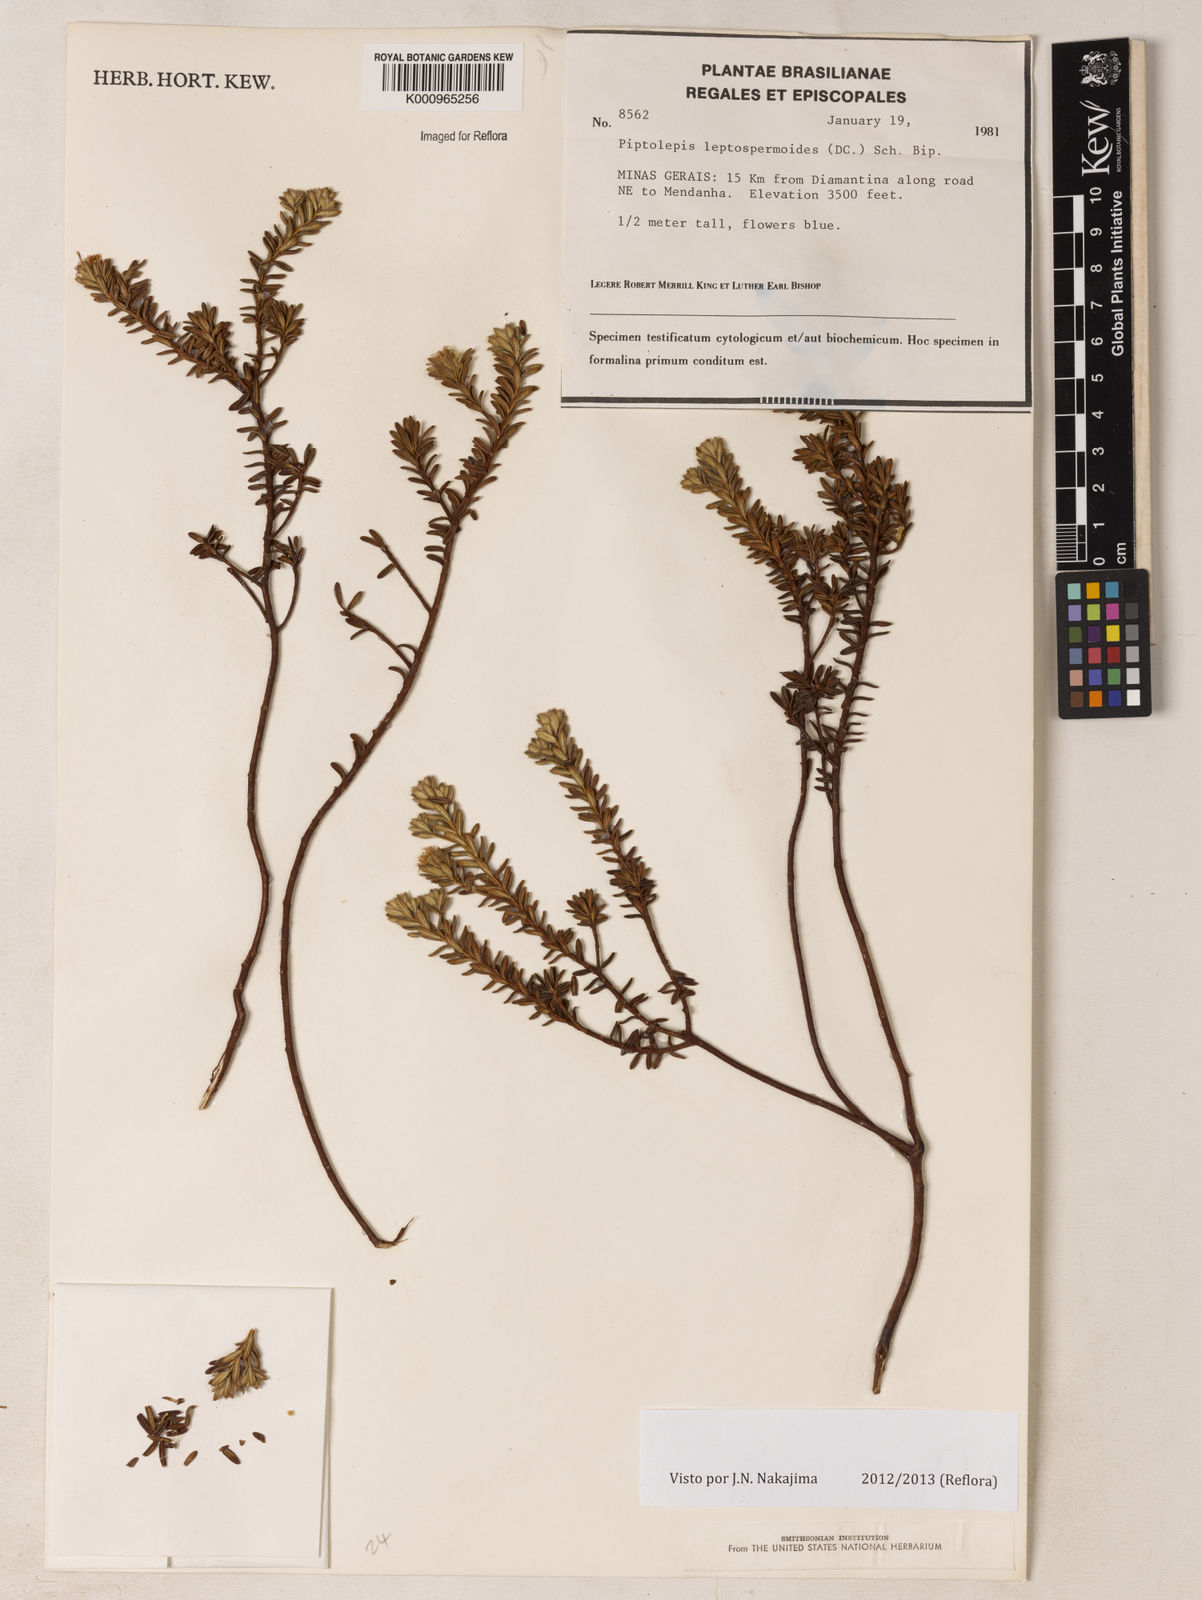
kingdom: Plantae
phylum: Tracheophyta
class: Magnoliopsida
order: Asterales
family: Asteraceae
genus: Piptolepis
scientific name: Piptolepis leptospermoides
